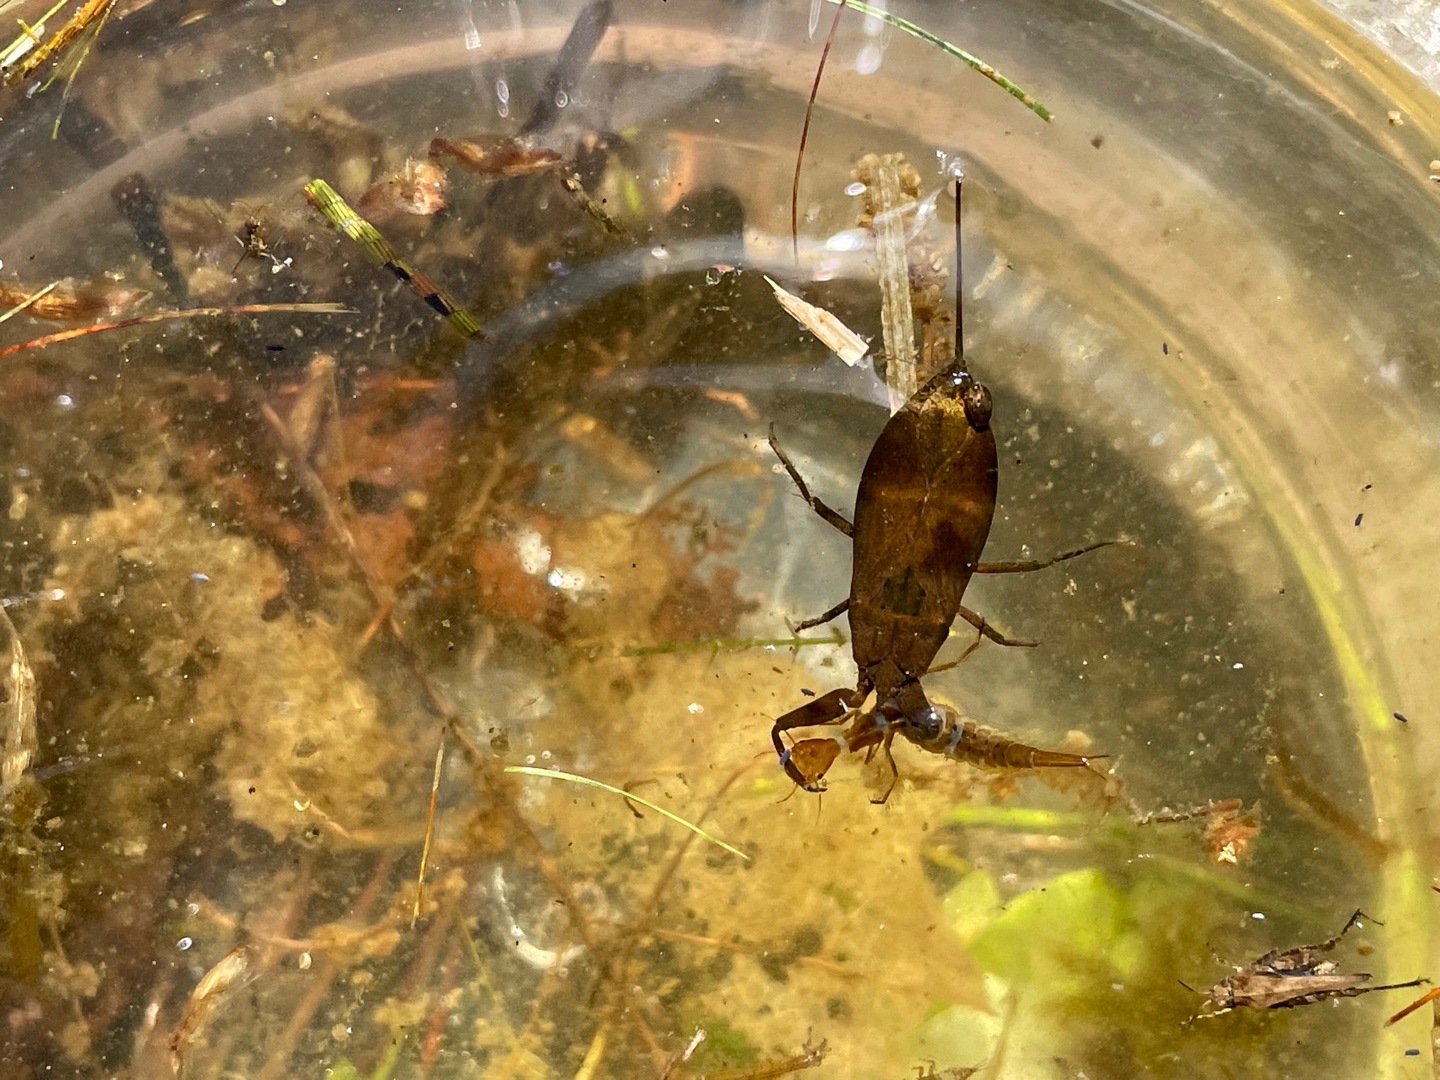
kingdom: Animalia
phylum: Arthropoda
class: Insecta
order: Hemiptera
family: Nepidae
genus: Nepa
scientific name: Nepa cinerea
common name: Skorpiontæge
